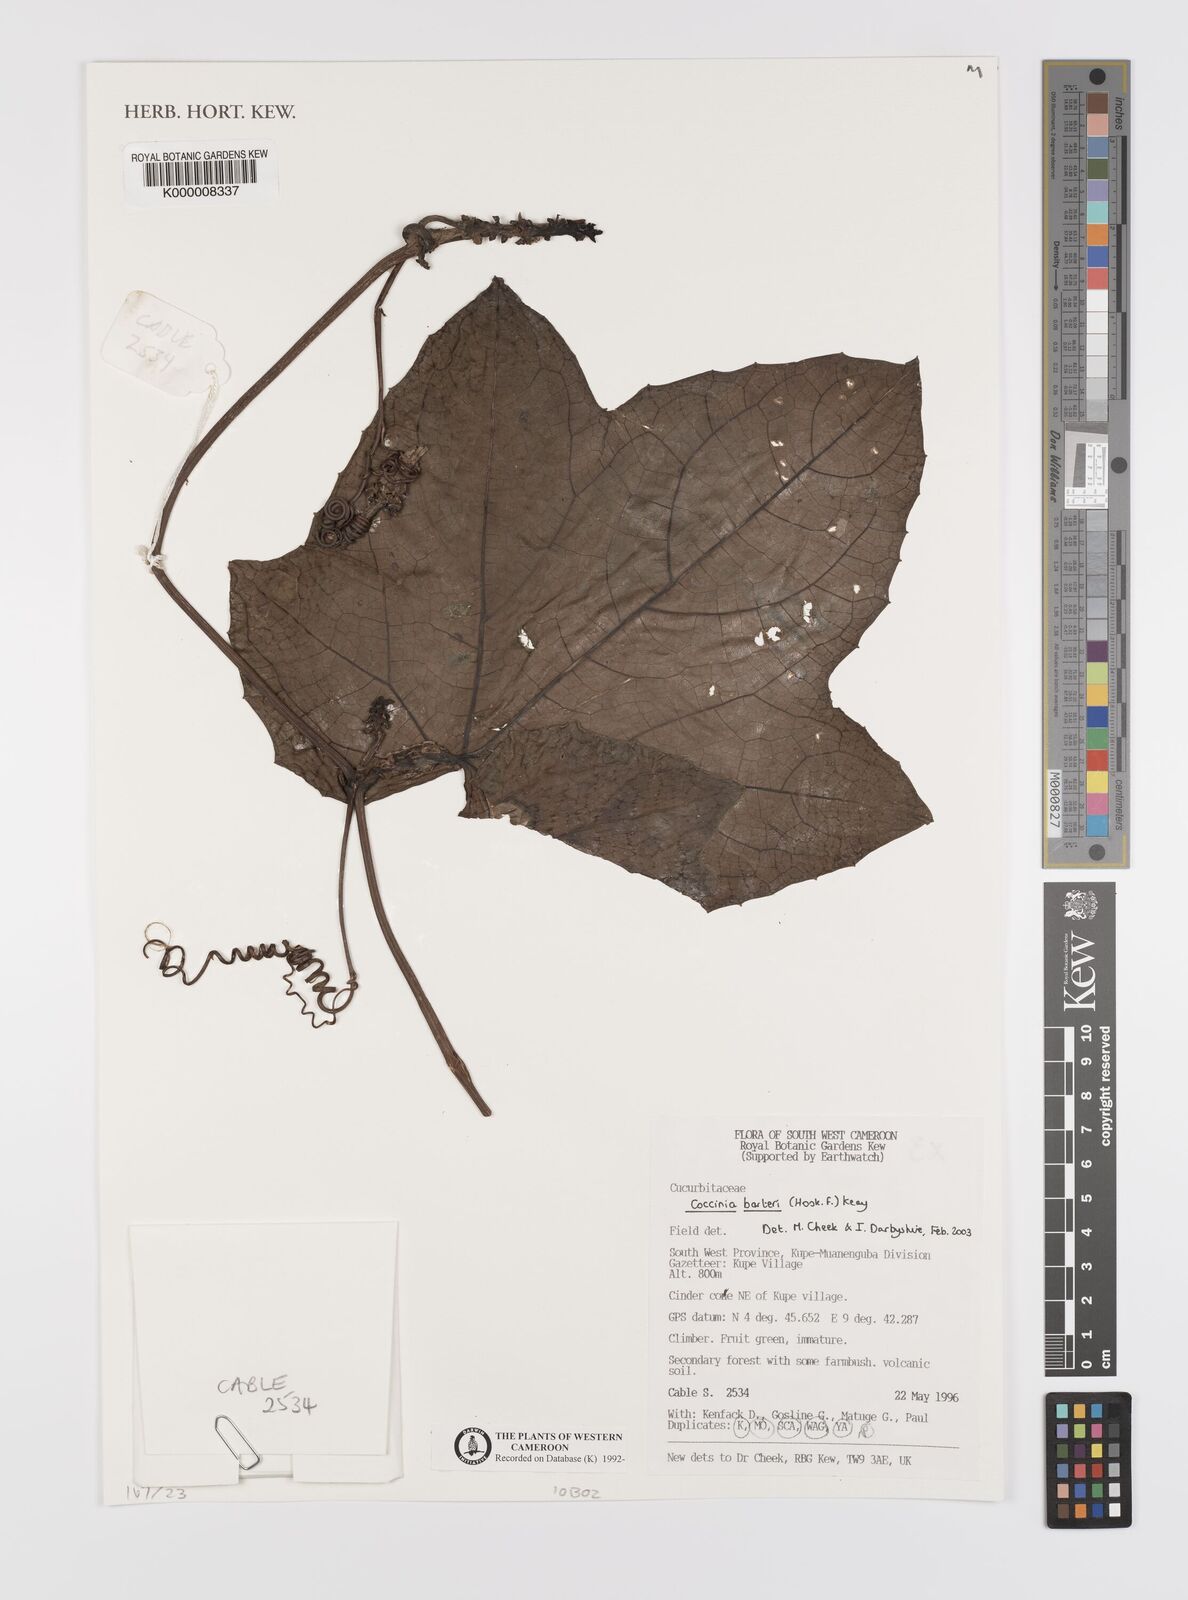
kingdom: Plantae
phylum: Tracheophyta
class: Magnoliopsida
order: Cucurbitales
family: Cucurbitaceae
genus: Coccinia
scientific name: Coccinia barteri
